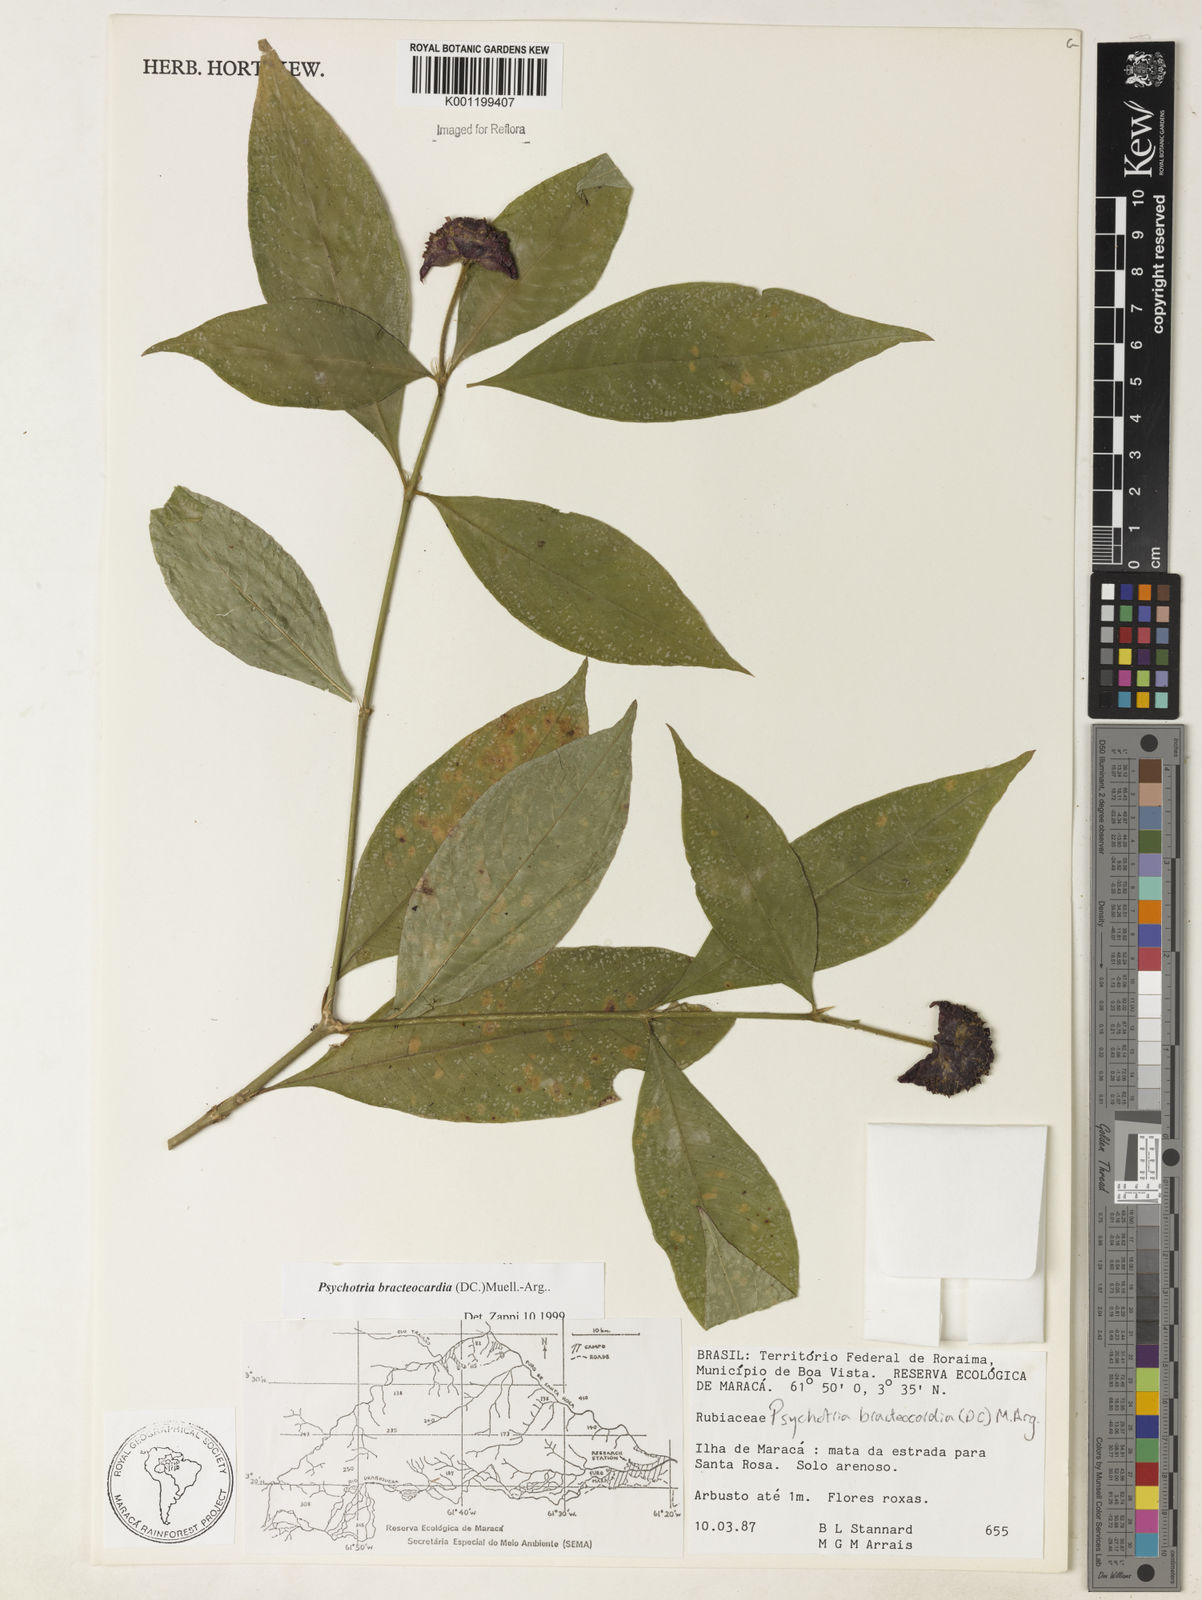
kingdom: Plantae
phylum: Tracheophyta
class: Magnoliopsida
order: Gentianales
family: Rubiaceae
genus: Psychotria
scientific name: Psychotria
